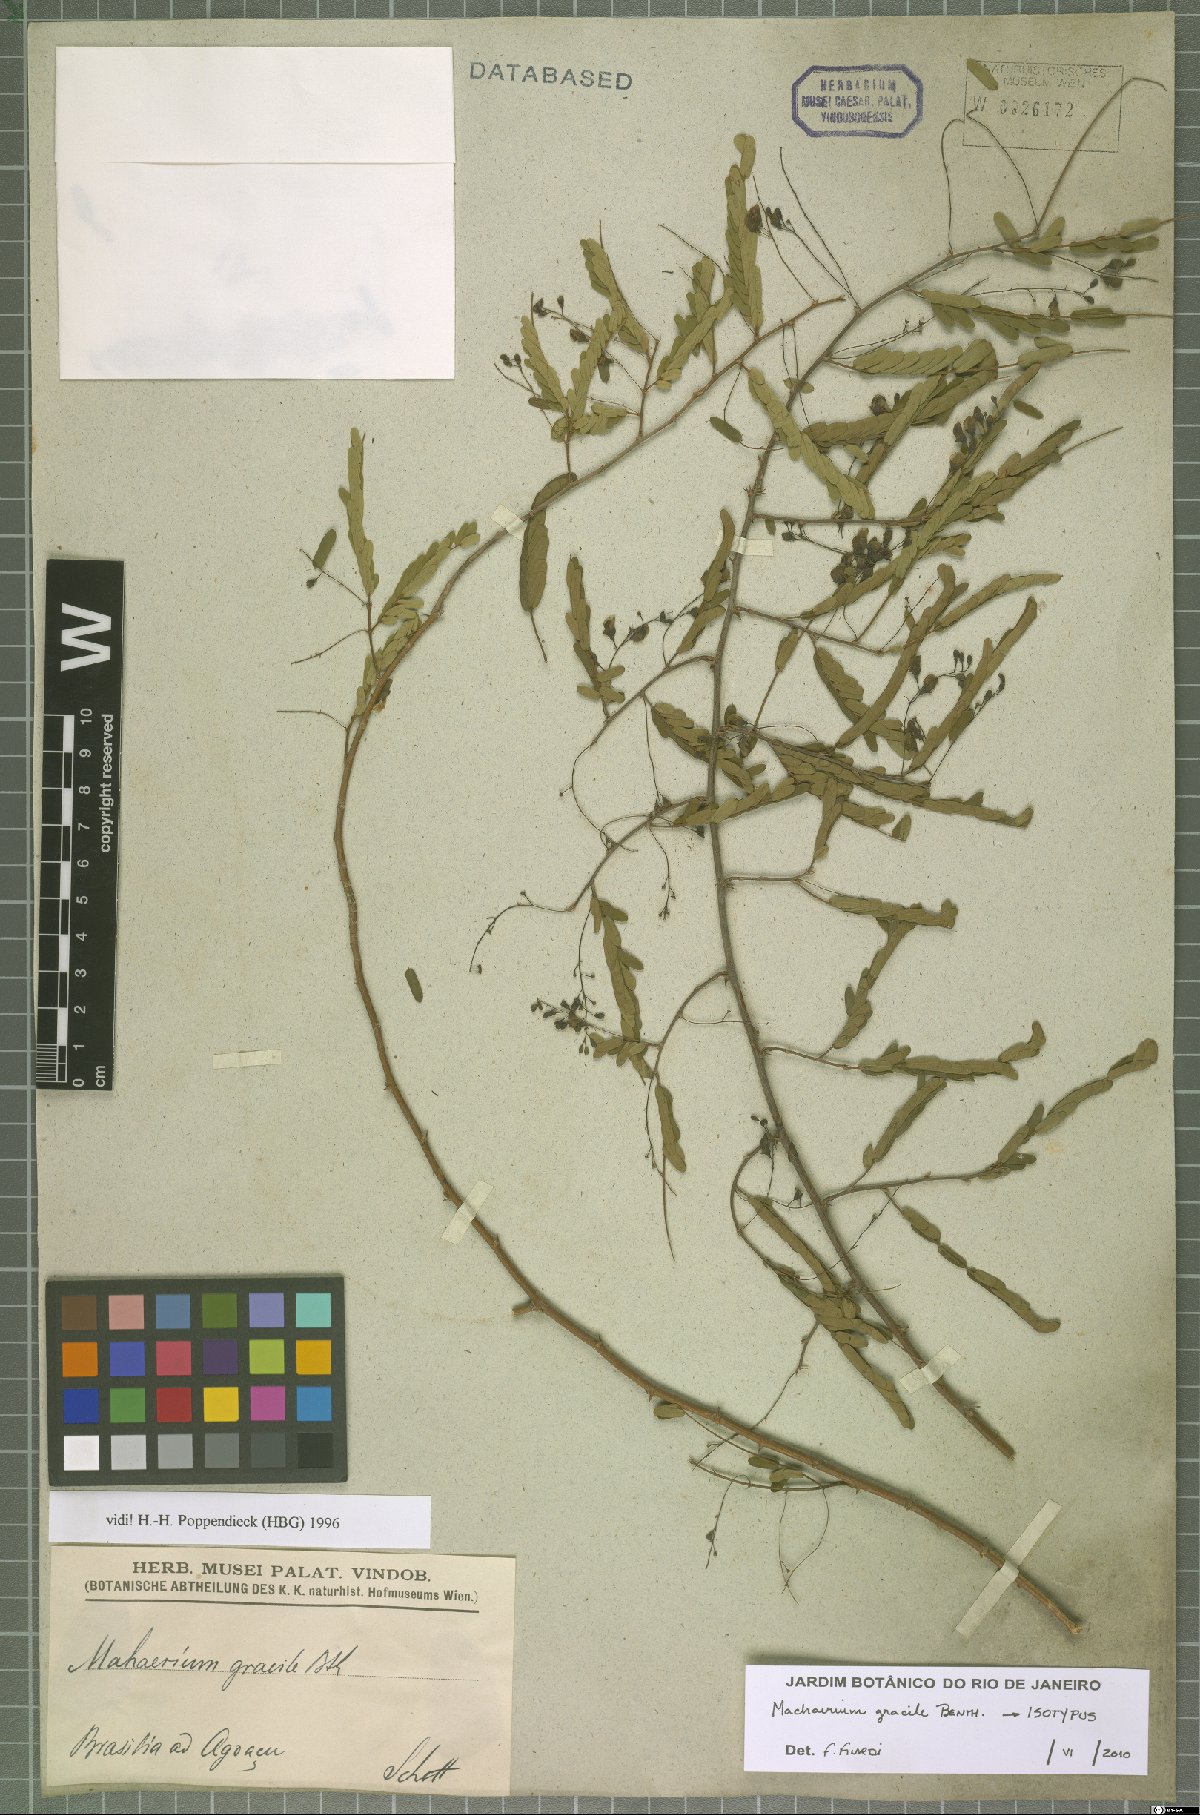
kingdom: Plantae
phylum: Tracheophyta
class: Magnoliopsida
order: Fabales
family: Fabaceae
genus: Machaerium
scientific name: Machaerium gracile
